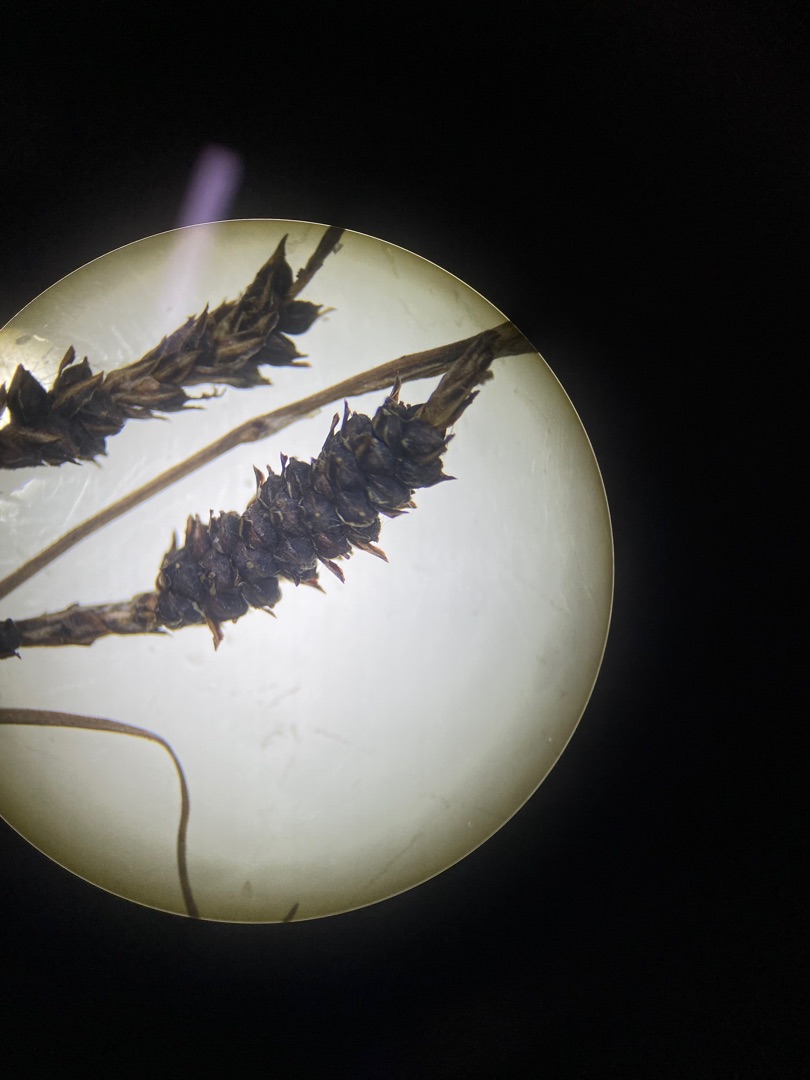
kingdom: Plantae
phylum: Tracheophyta
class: Liliopsida
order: Poales
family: Cyperaceae
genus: Carex
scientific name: Carex nigra
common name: Almindelig star
